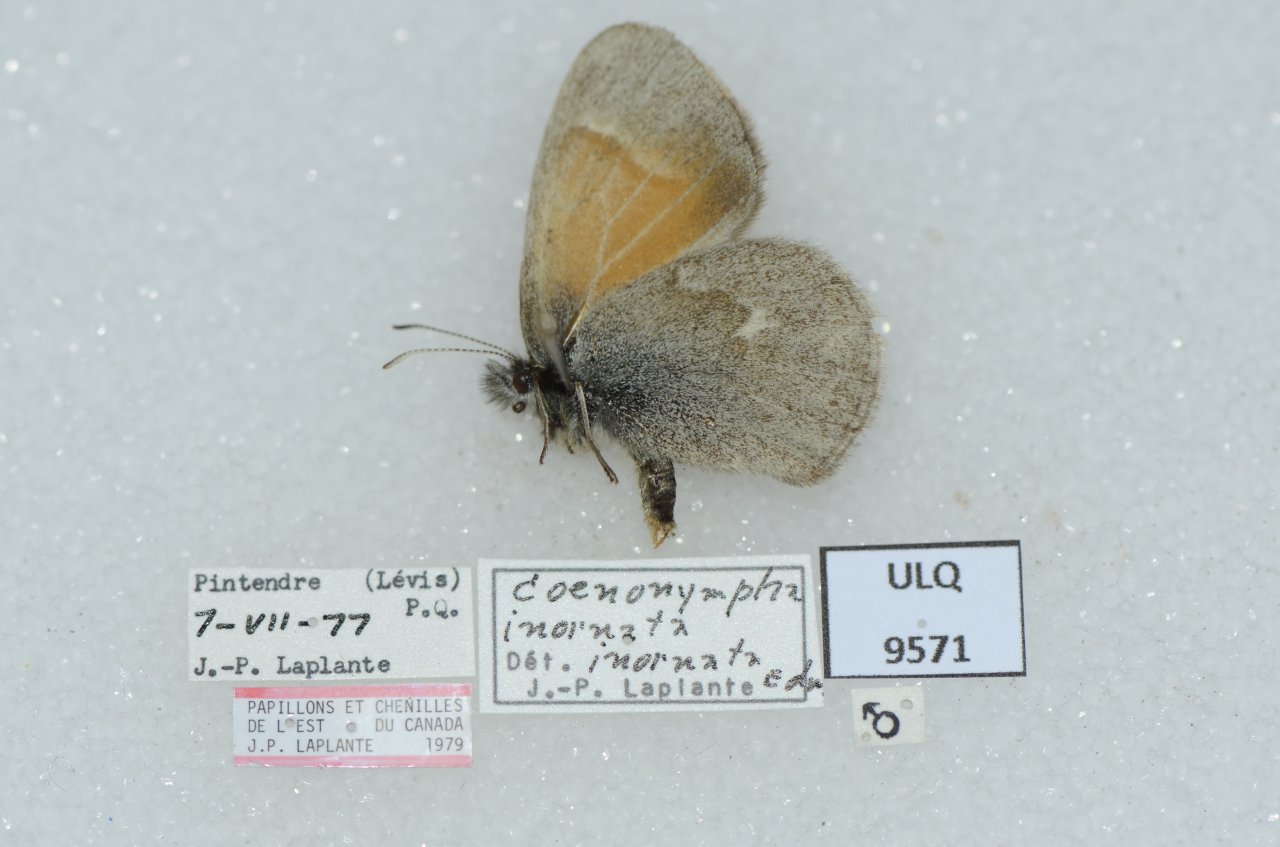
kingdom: Animalia
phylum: Arthropoda
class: Insecta
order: Lepidoptera
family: Nymphalidae
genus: Coenonympha
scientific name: Coenonympha tullia
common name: Large Heath
